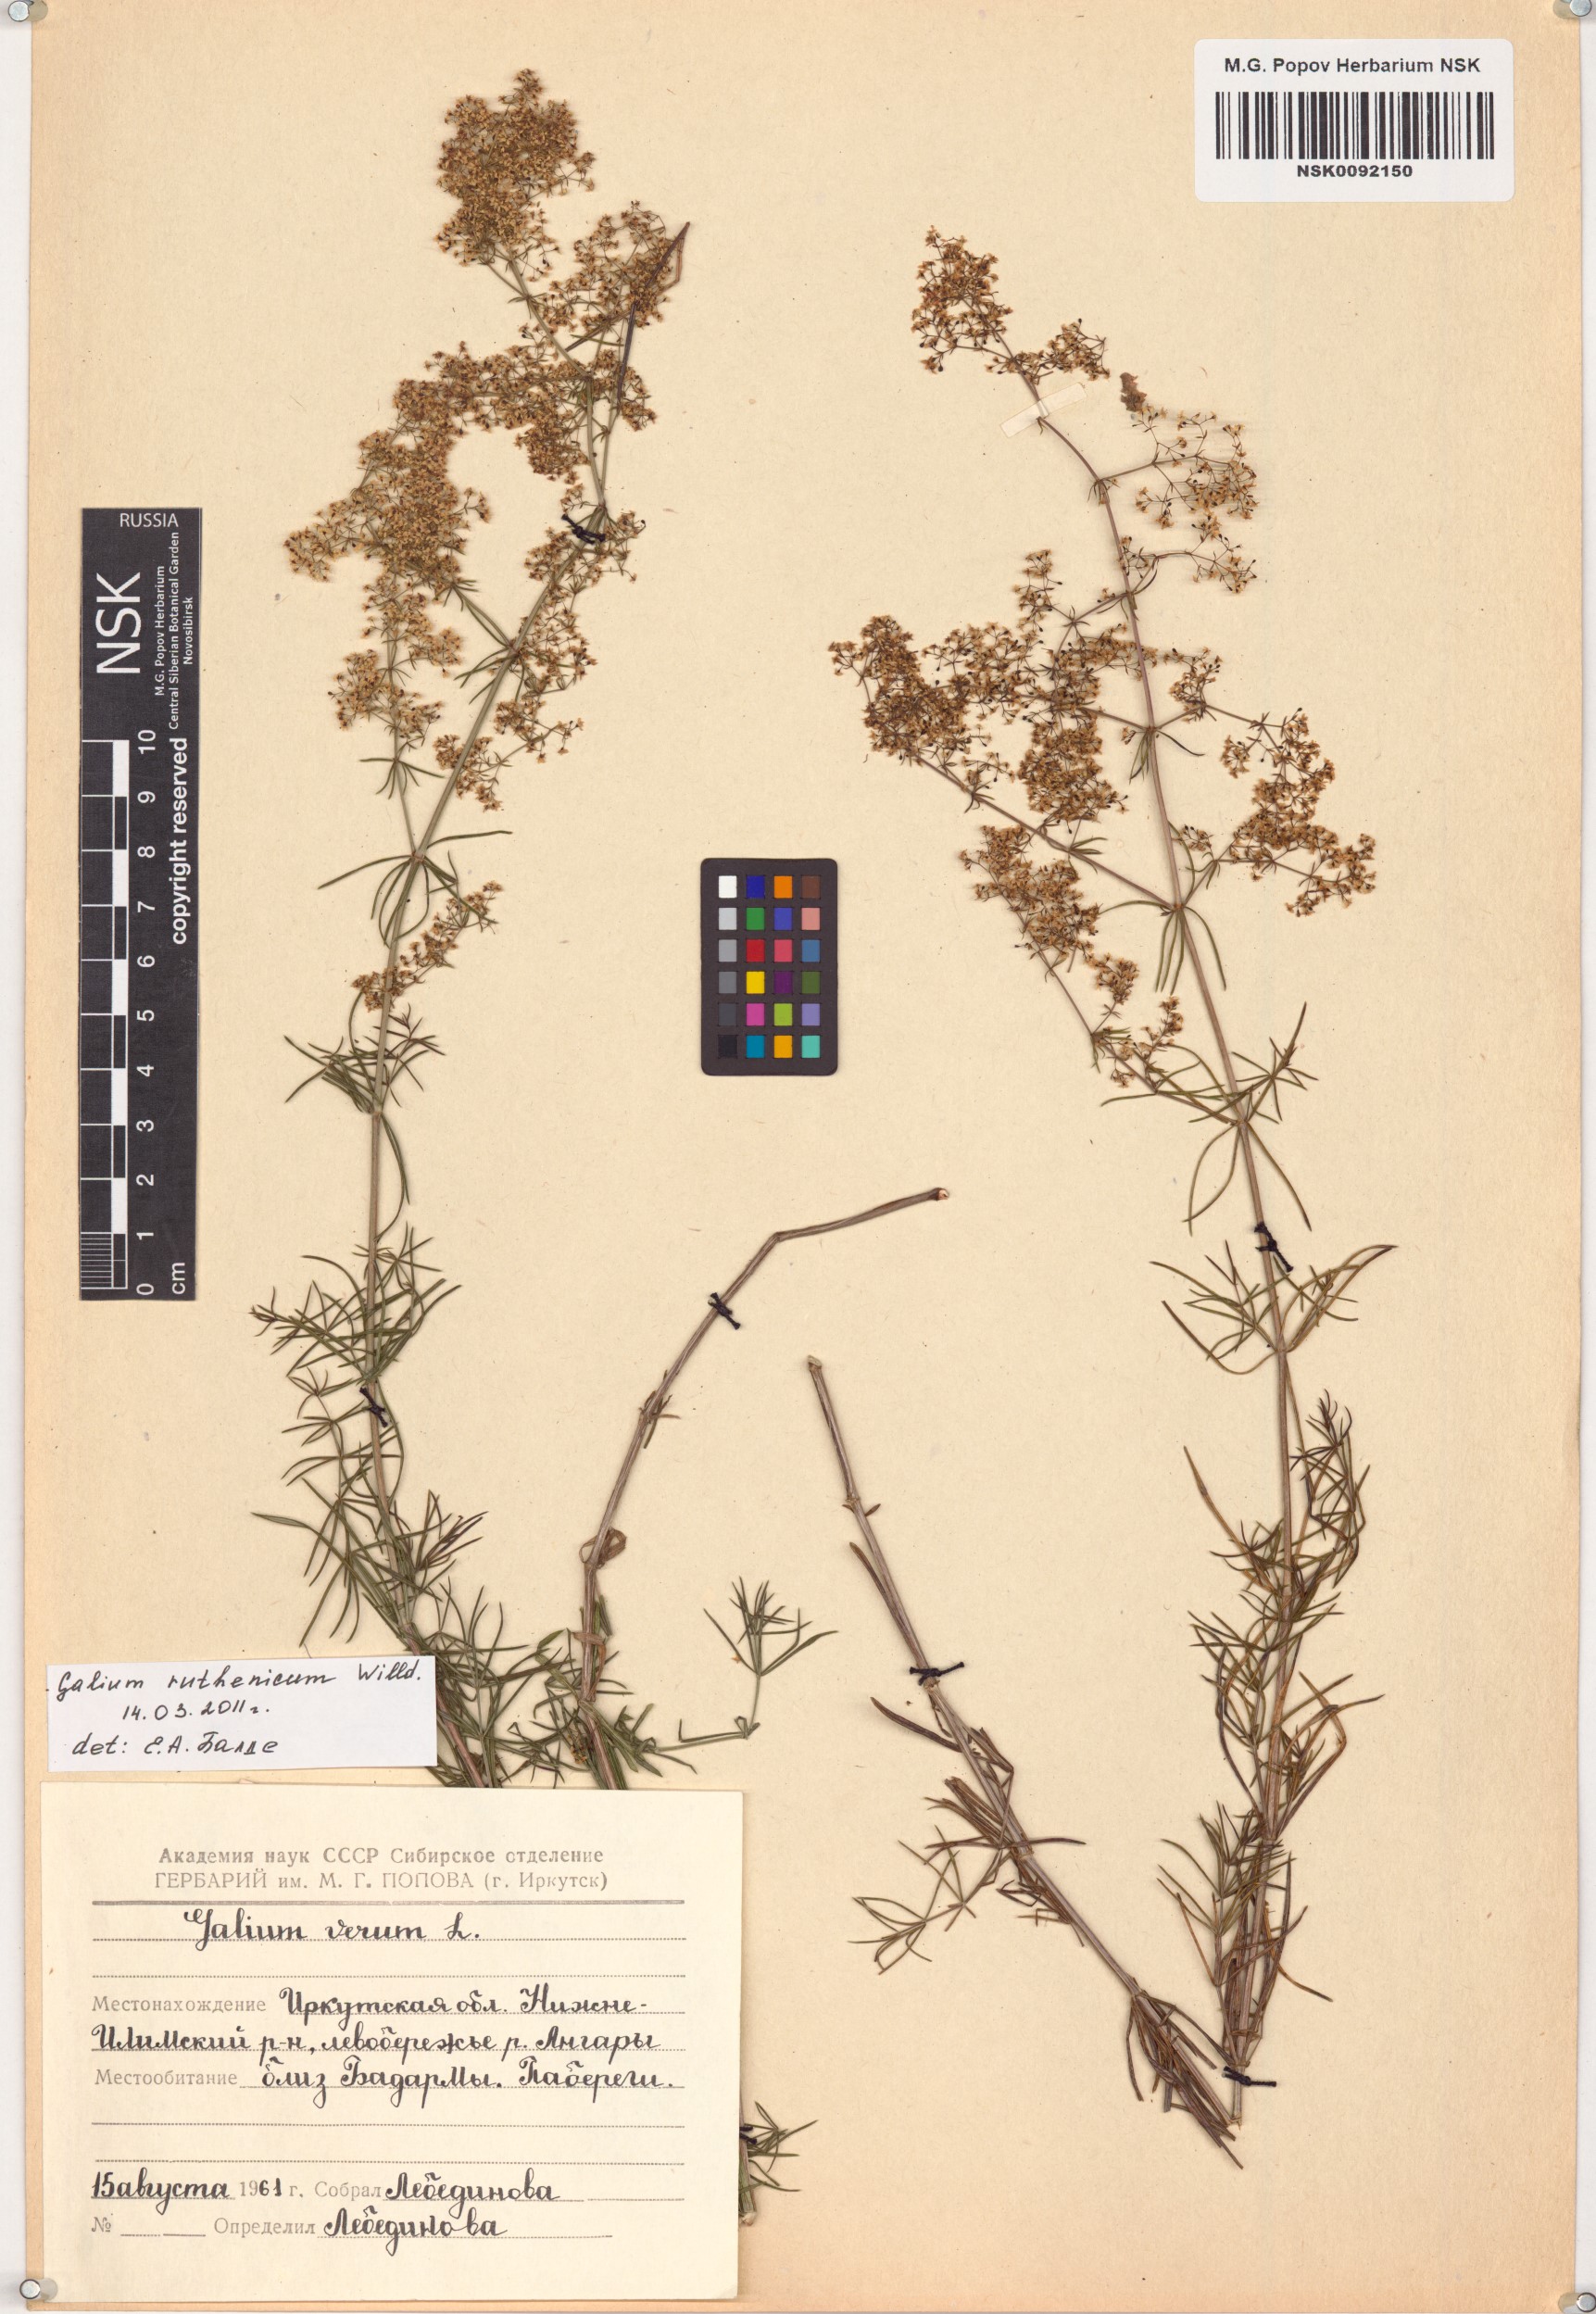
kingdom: Plantae
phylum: Tracheophyta
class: Magnoliopsida
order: Gentianales
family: Rubiaceae
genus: Galium
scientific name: Galium verum
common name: Lady's bedstraw
